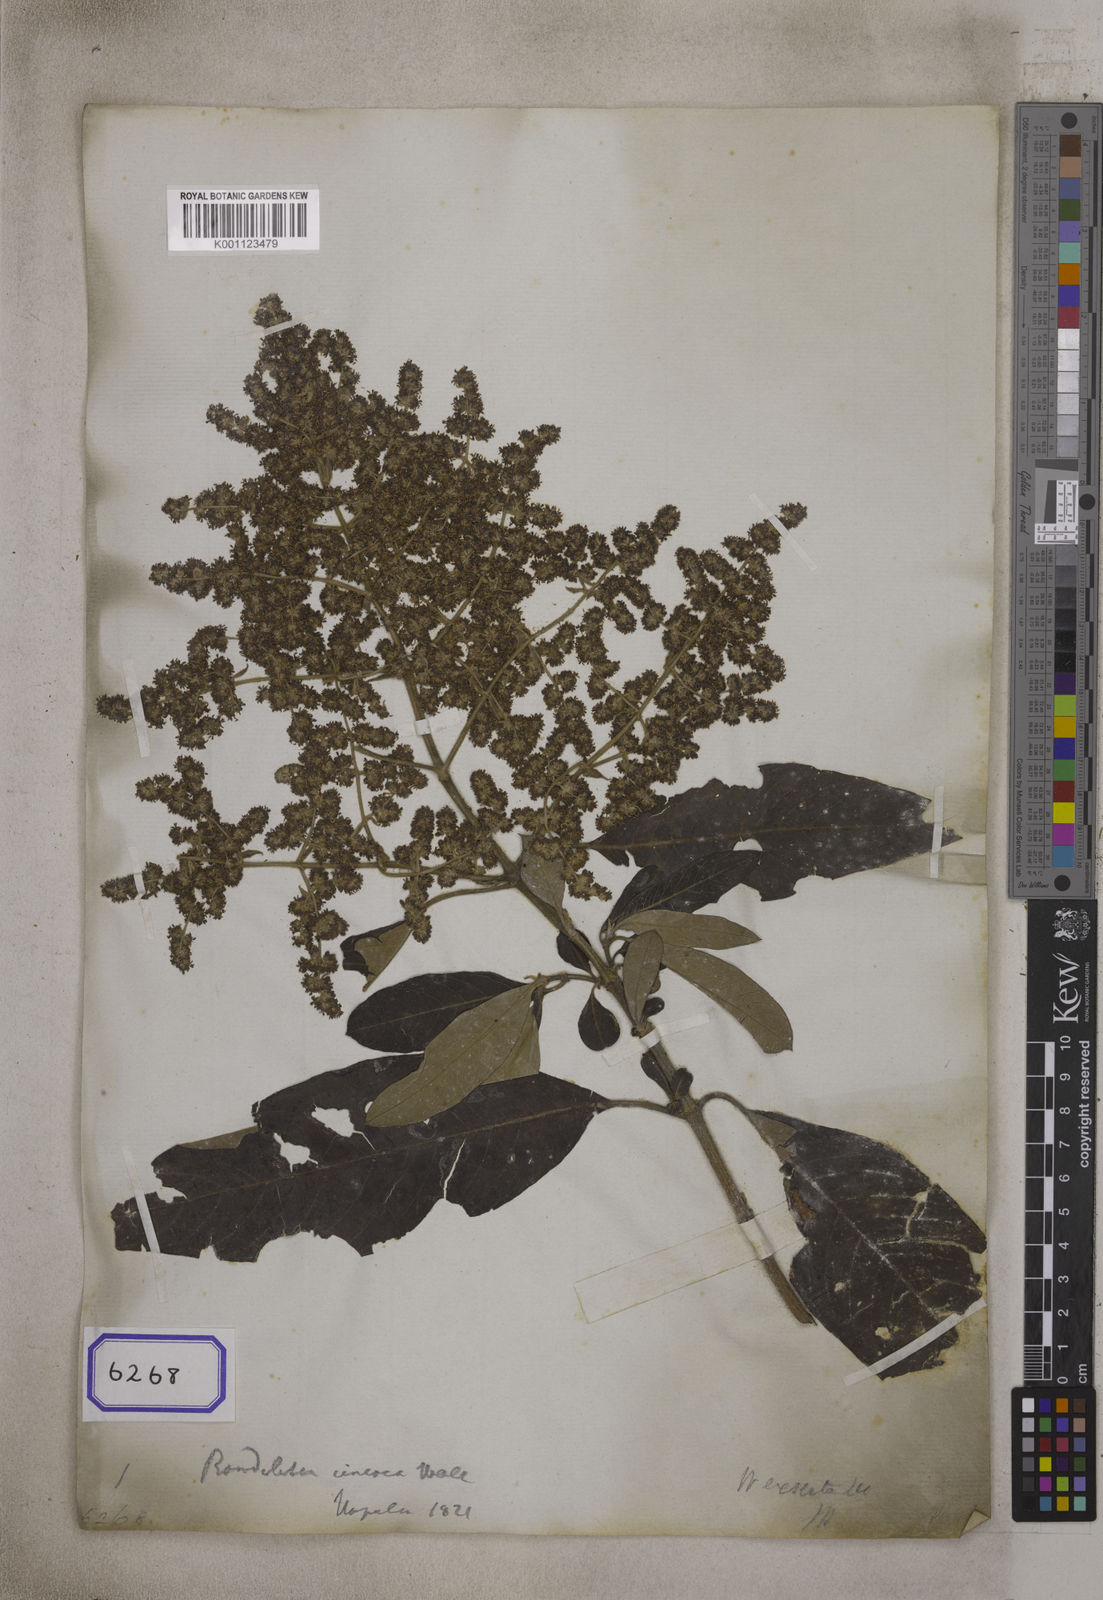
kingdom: Plantae
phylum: Tracheophyta
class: Magnoliopsida
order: Gentianales
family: Rubiaceae
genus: Wendlandia
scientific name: Wendlandia heynei
